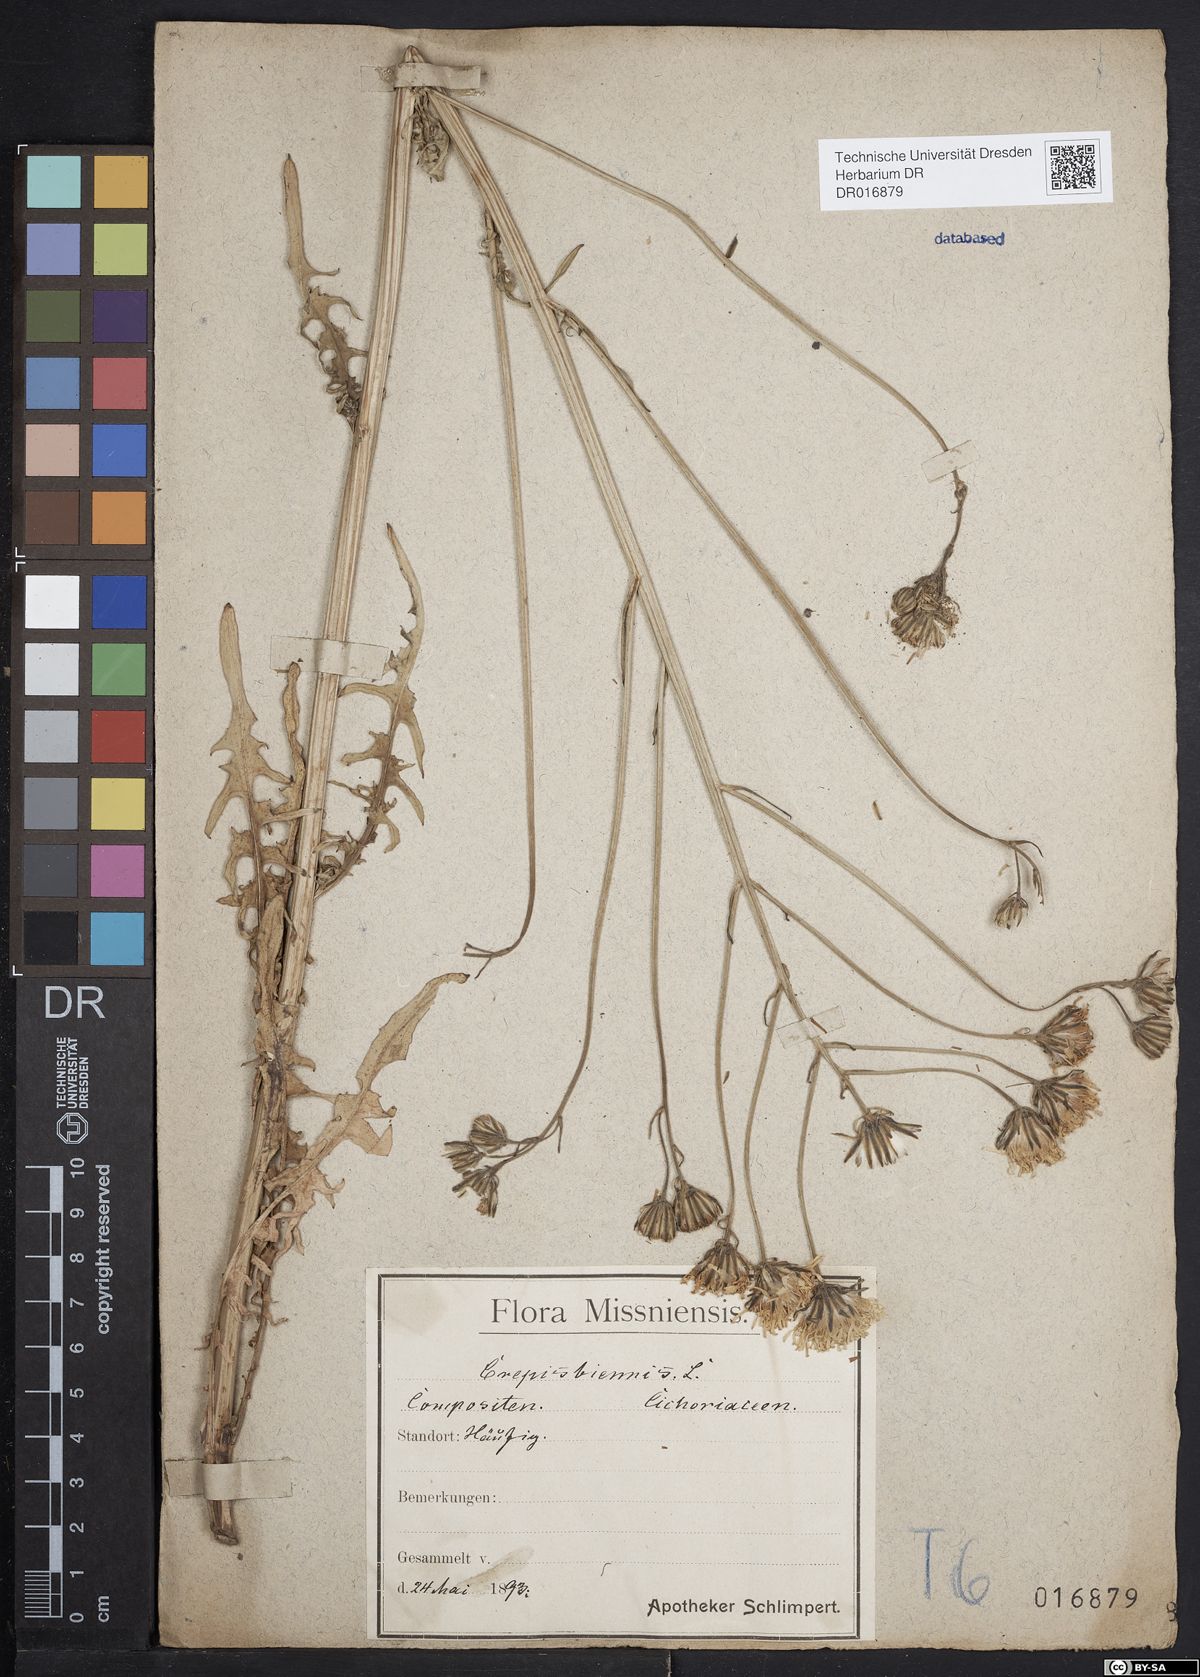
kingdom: Plantae
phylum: Tracheophyta
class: Magnoliopsida
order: Asterales
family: Asteraceae
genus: Crepis
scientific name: Crepis biennis
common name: Rough hawk's-beard
